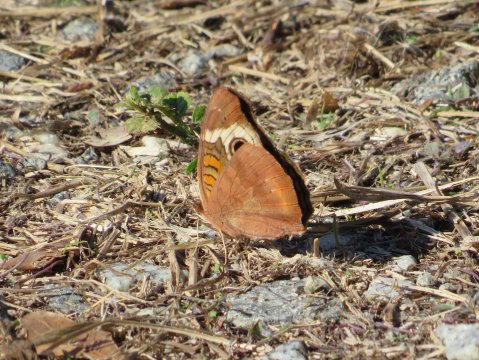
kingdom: Animalia
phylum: Arthropoda
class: Insecta
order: Lepidoptera
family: Nymphalidae
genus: Junonia
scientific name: Junonia coenia
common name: Common Buckeye
